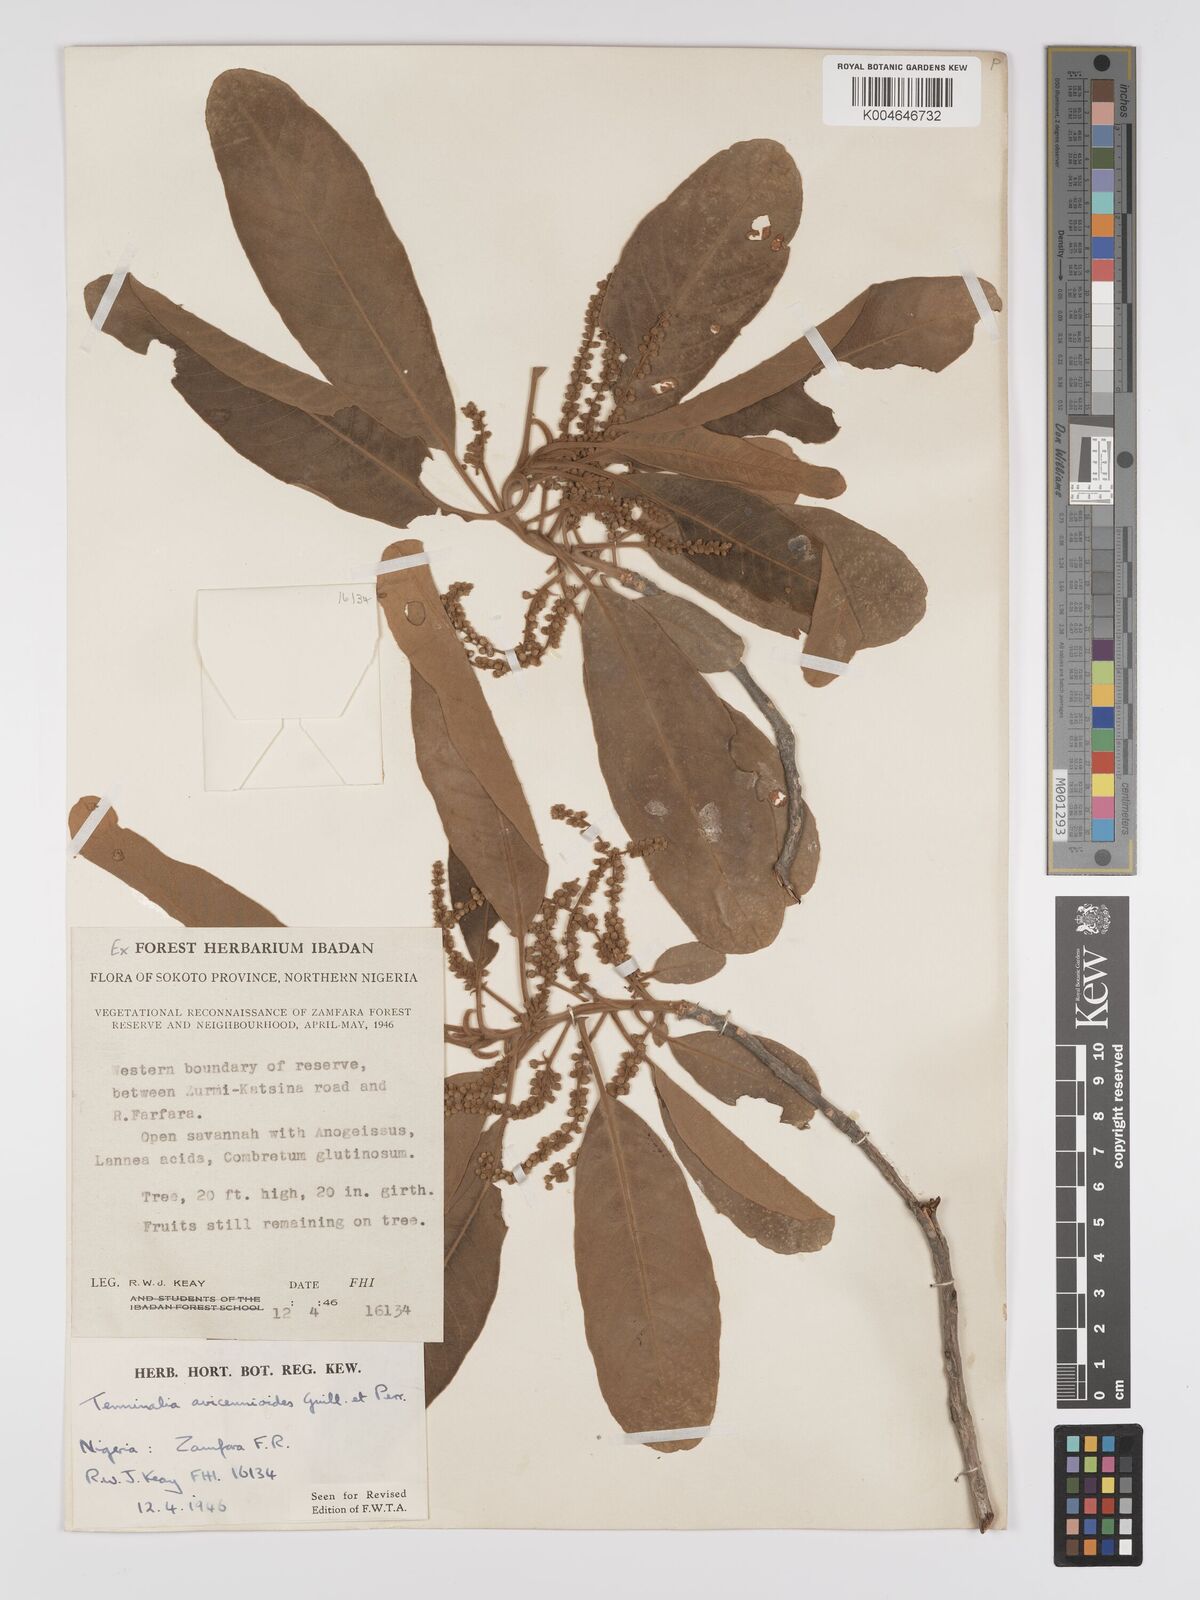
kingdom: Plantae
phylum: Tracheophyta
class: Magnoliopsida
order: Myrtales
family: Combretaceae
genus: Terminalia
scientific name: Terminalia avicennioides
